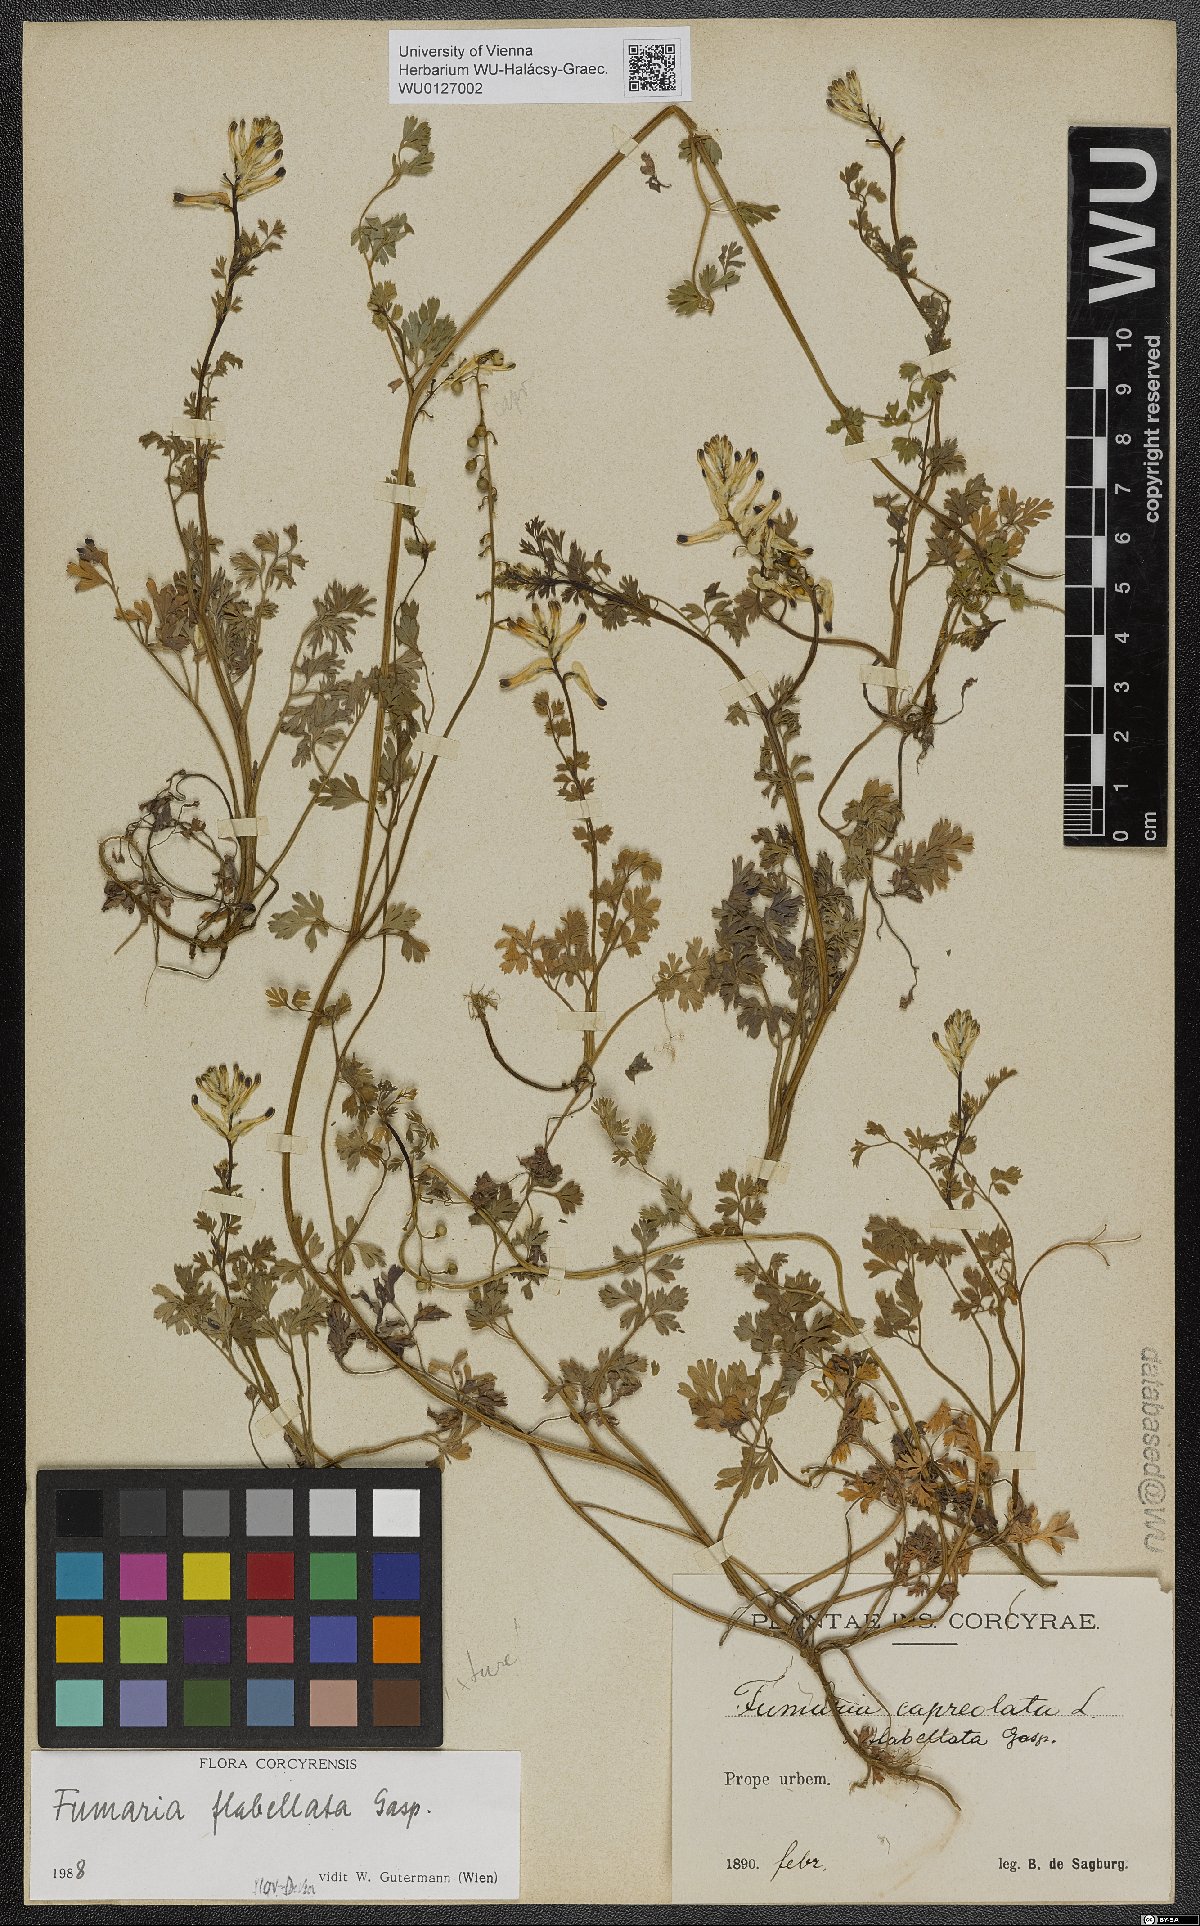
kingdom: Plantae
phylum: Tracheophyta
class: Magnoliopsida
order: Ranunculales
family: Papaveraceae
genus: Fumaria
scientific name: Fumaria flabellata
